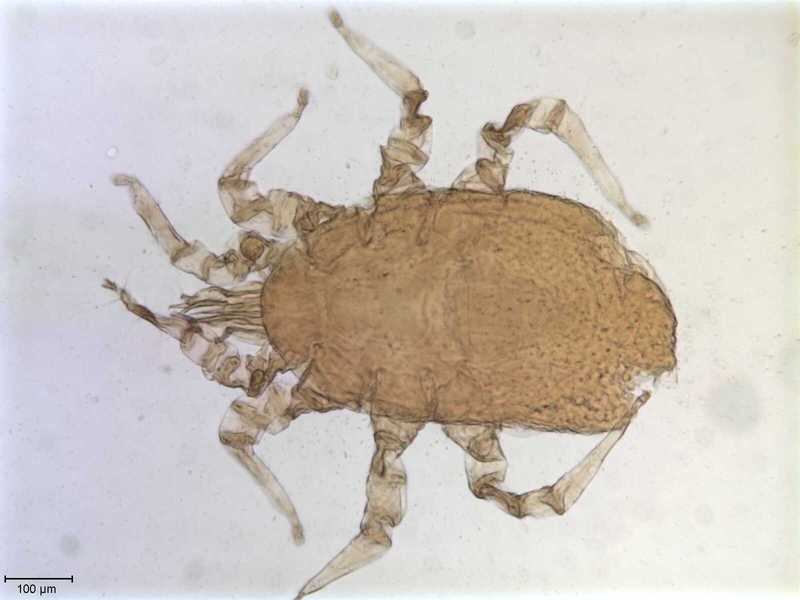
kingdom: Animalia
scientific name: Animalia
